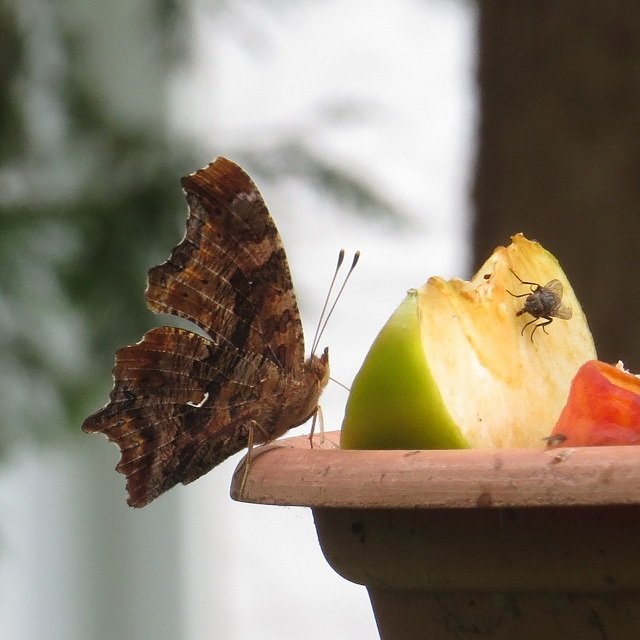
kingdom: Animalia
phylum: Arthropoda
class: Insecta
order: Lepidoptera
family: Nymphalidae
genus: Polygonia
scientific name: Polygonia comma
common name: Eastern Comma
